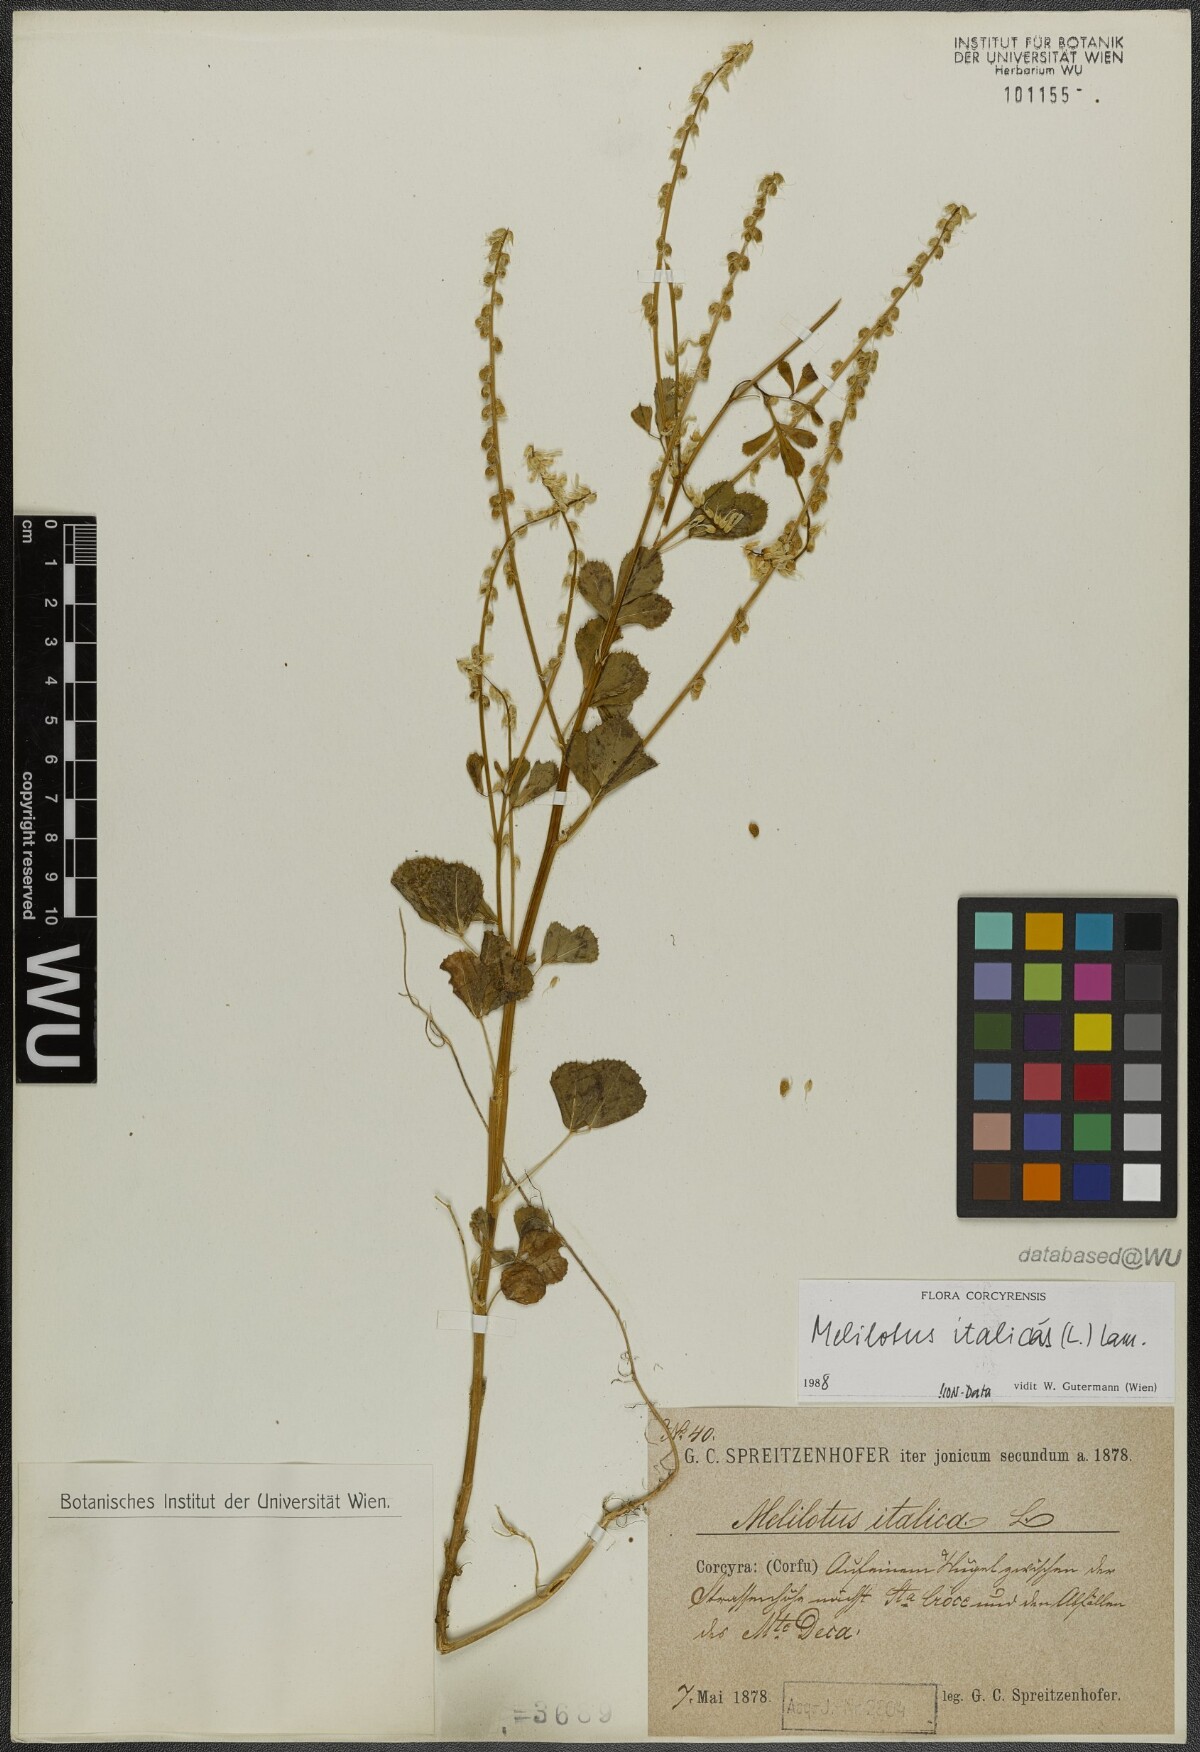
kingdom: Plantae
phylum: Tracheophyta
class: Magnoliopsida
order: Fabales
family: Fabaceae
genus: Melilotus
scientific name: Melilotus italicus
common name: Italian melilot
